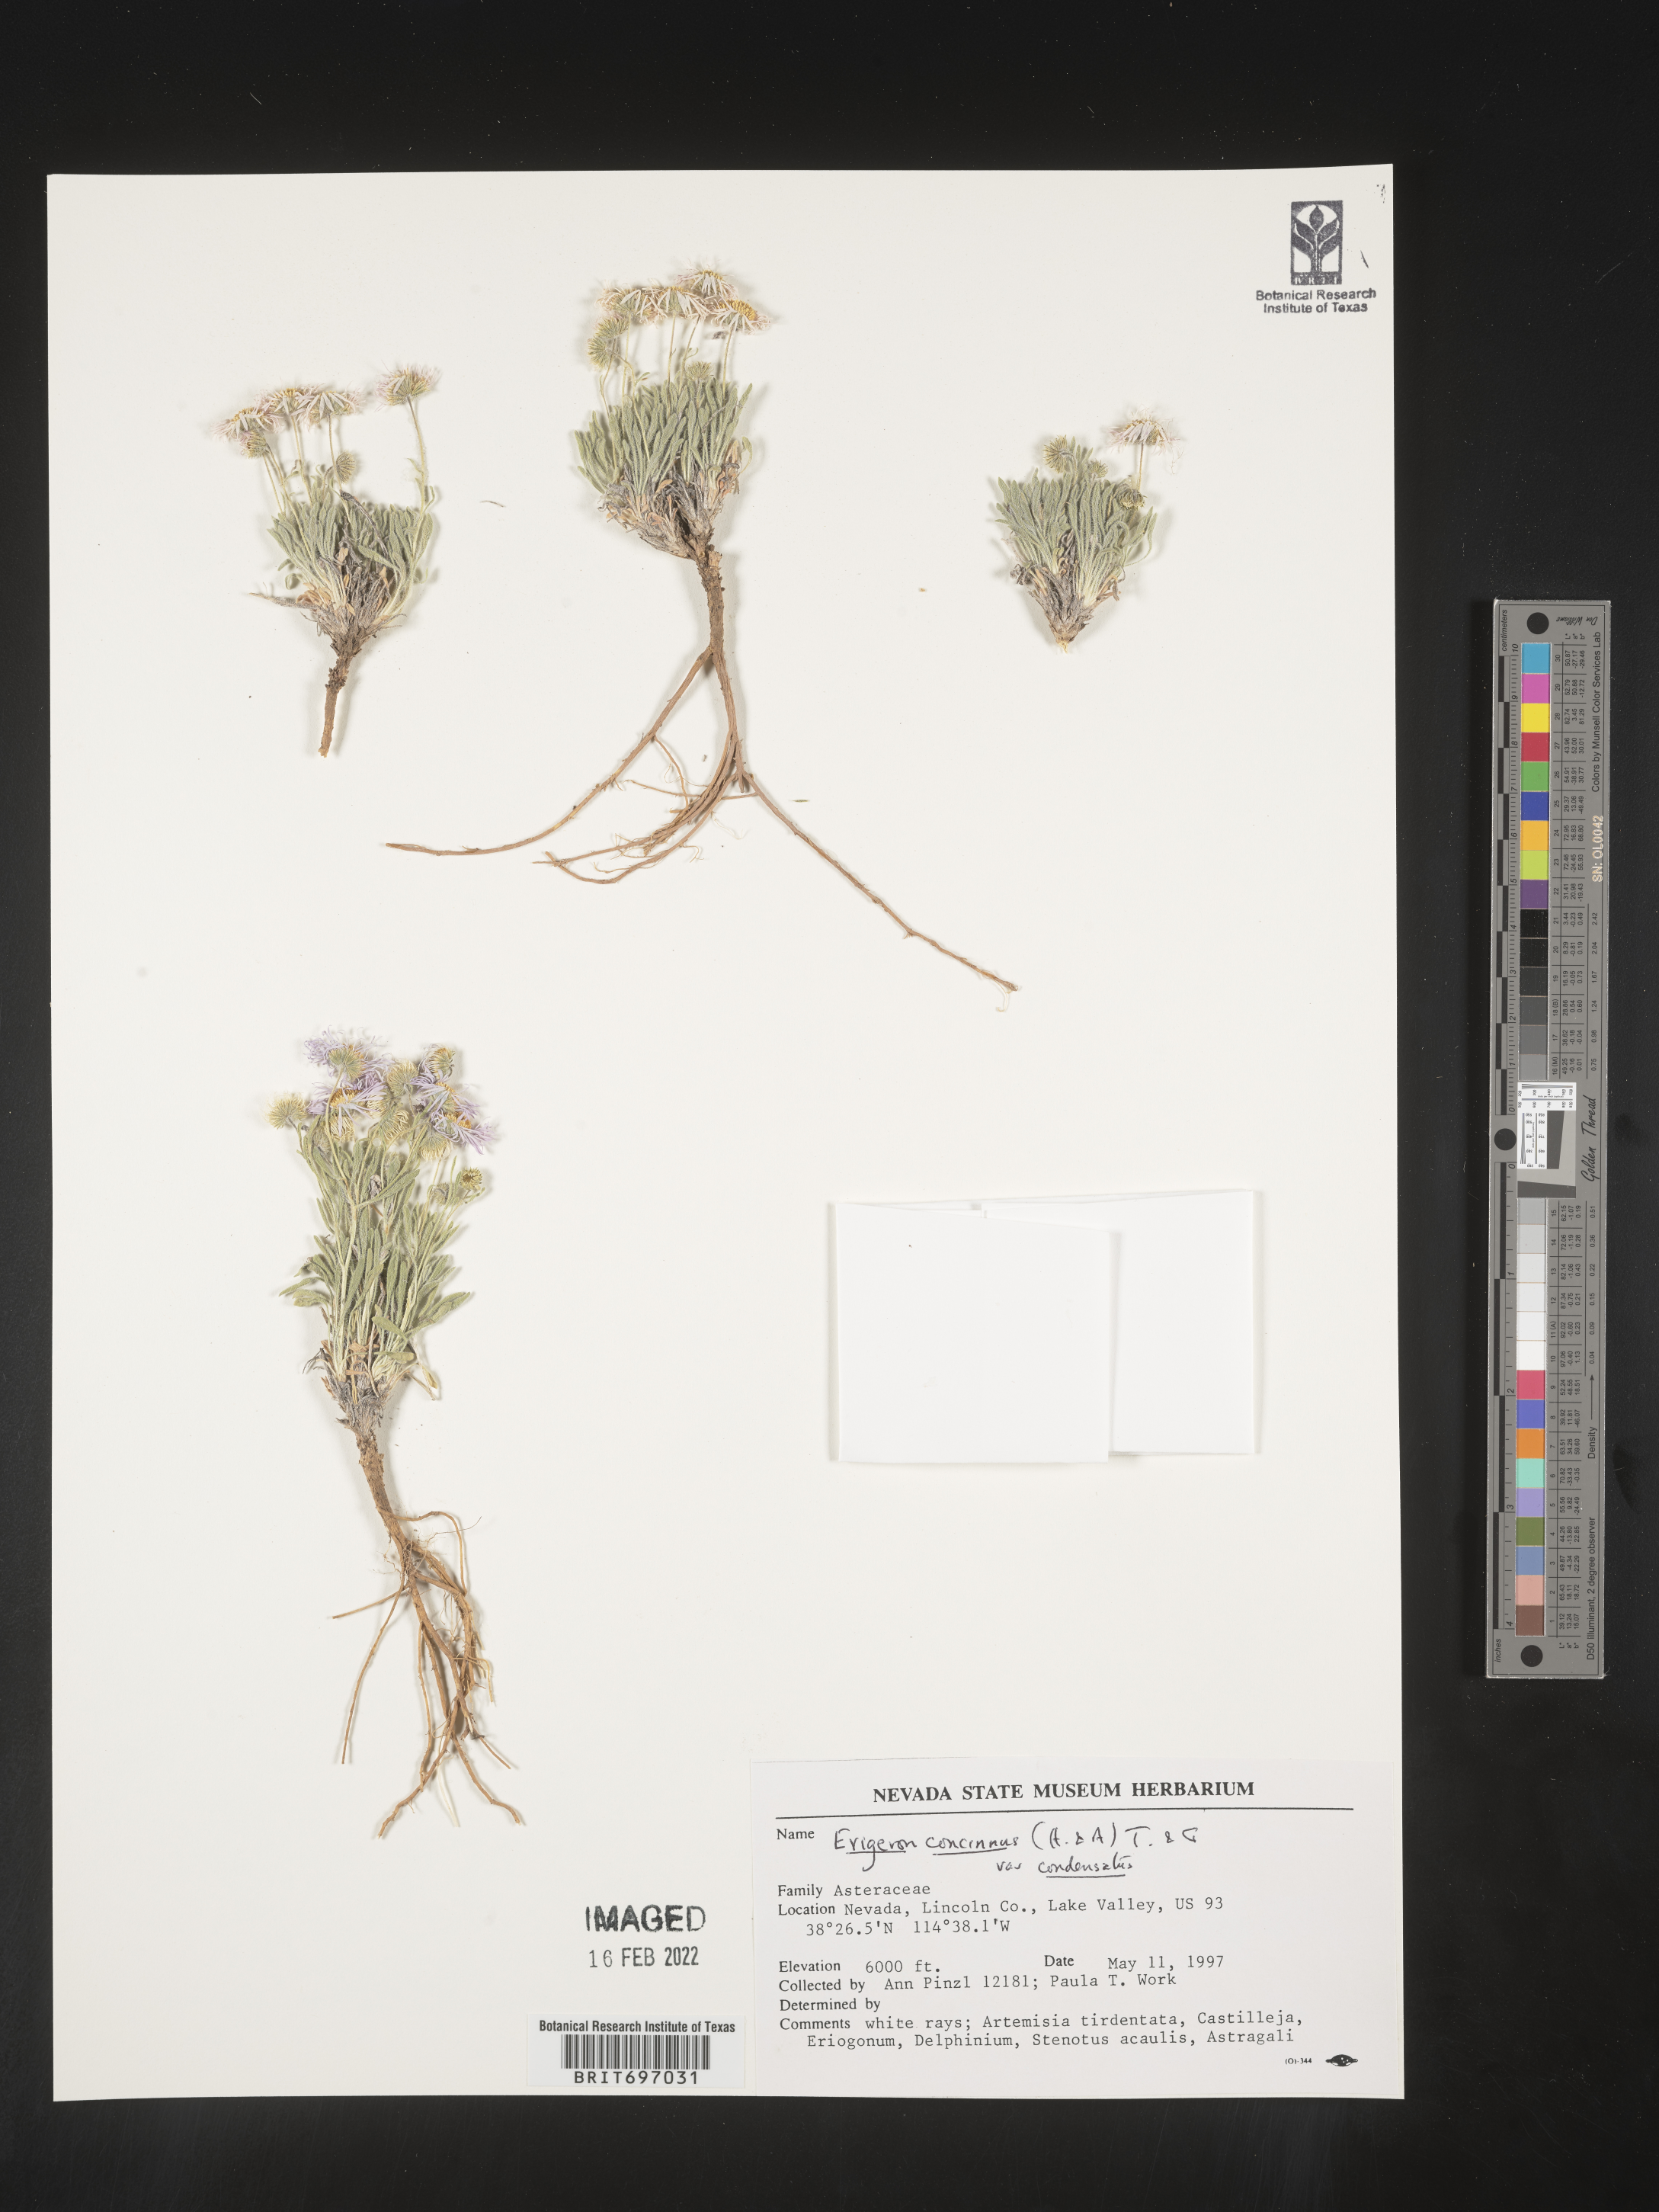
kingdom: Plantae
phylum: Tracheophyta
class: Magnoliopsida
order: Asterales
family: Asteraceae
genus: Erigeron
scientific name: Erigeron concinnus
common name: Navajo fleabane
